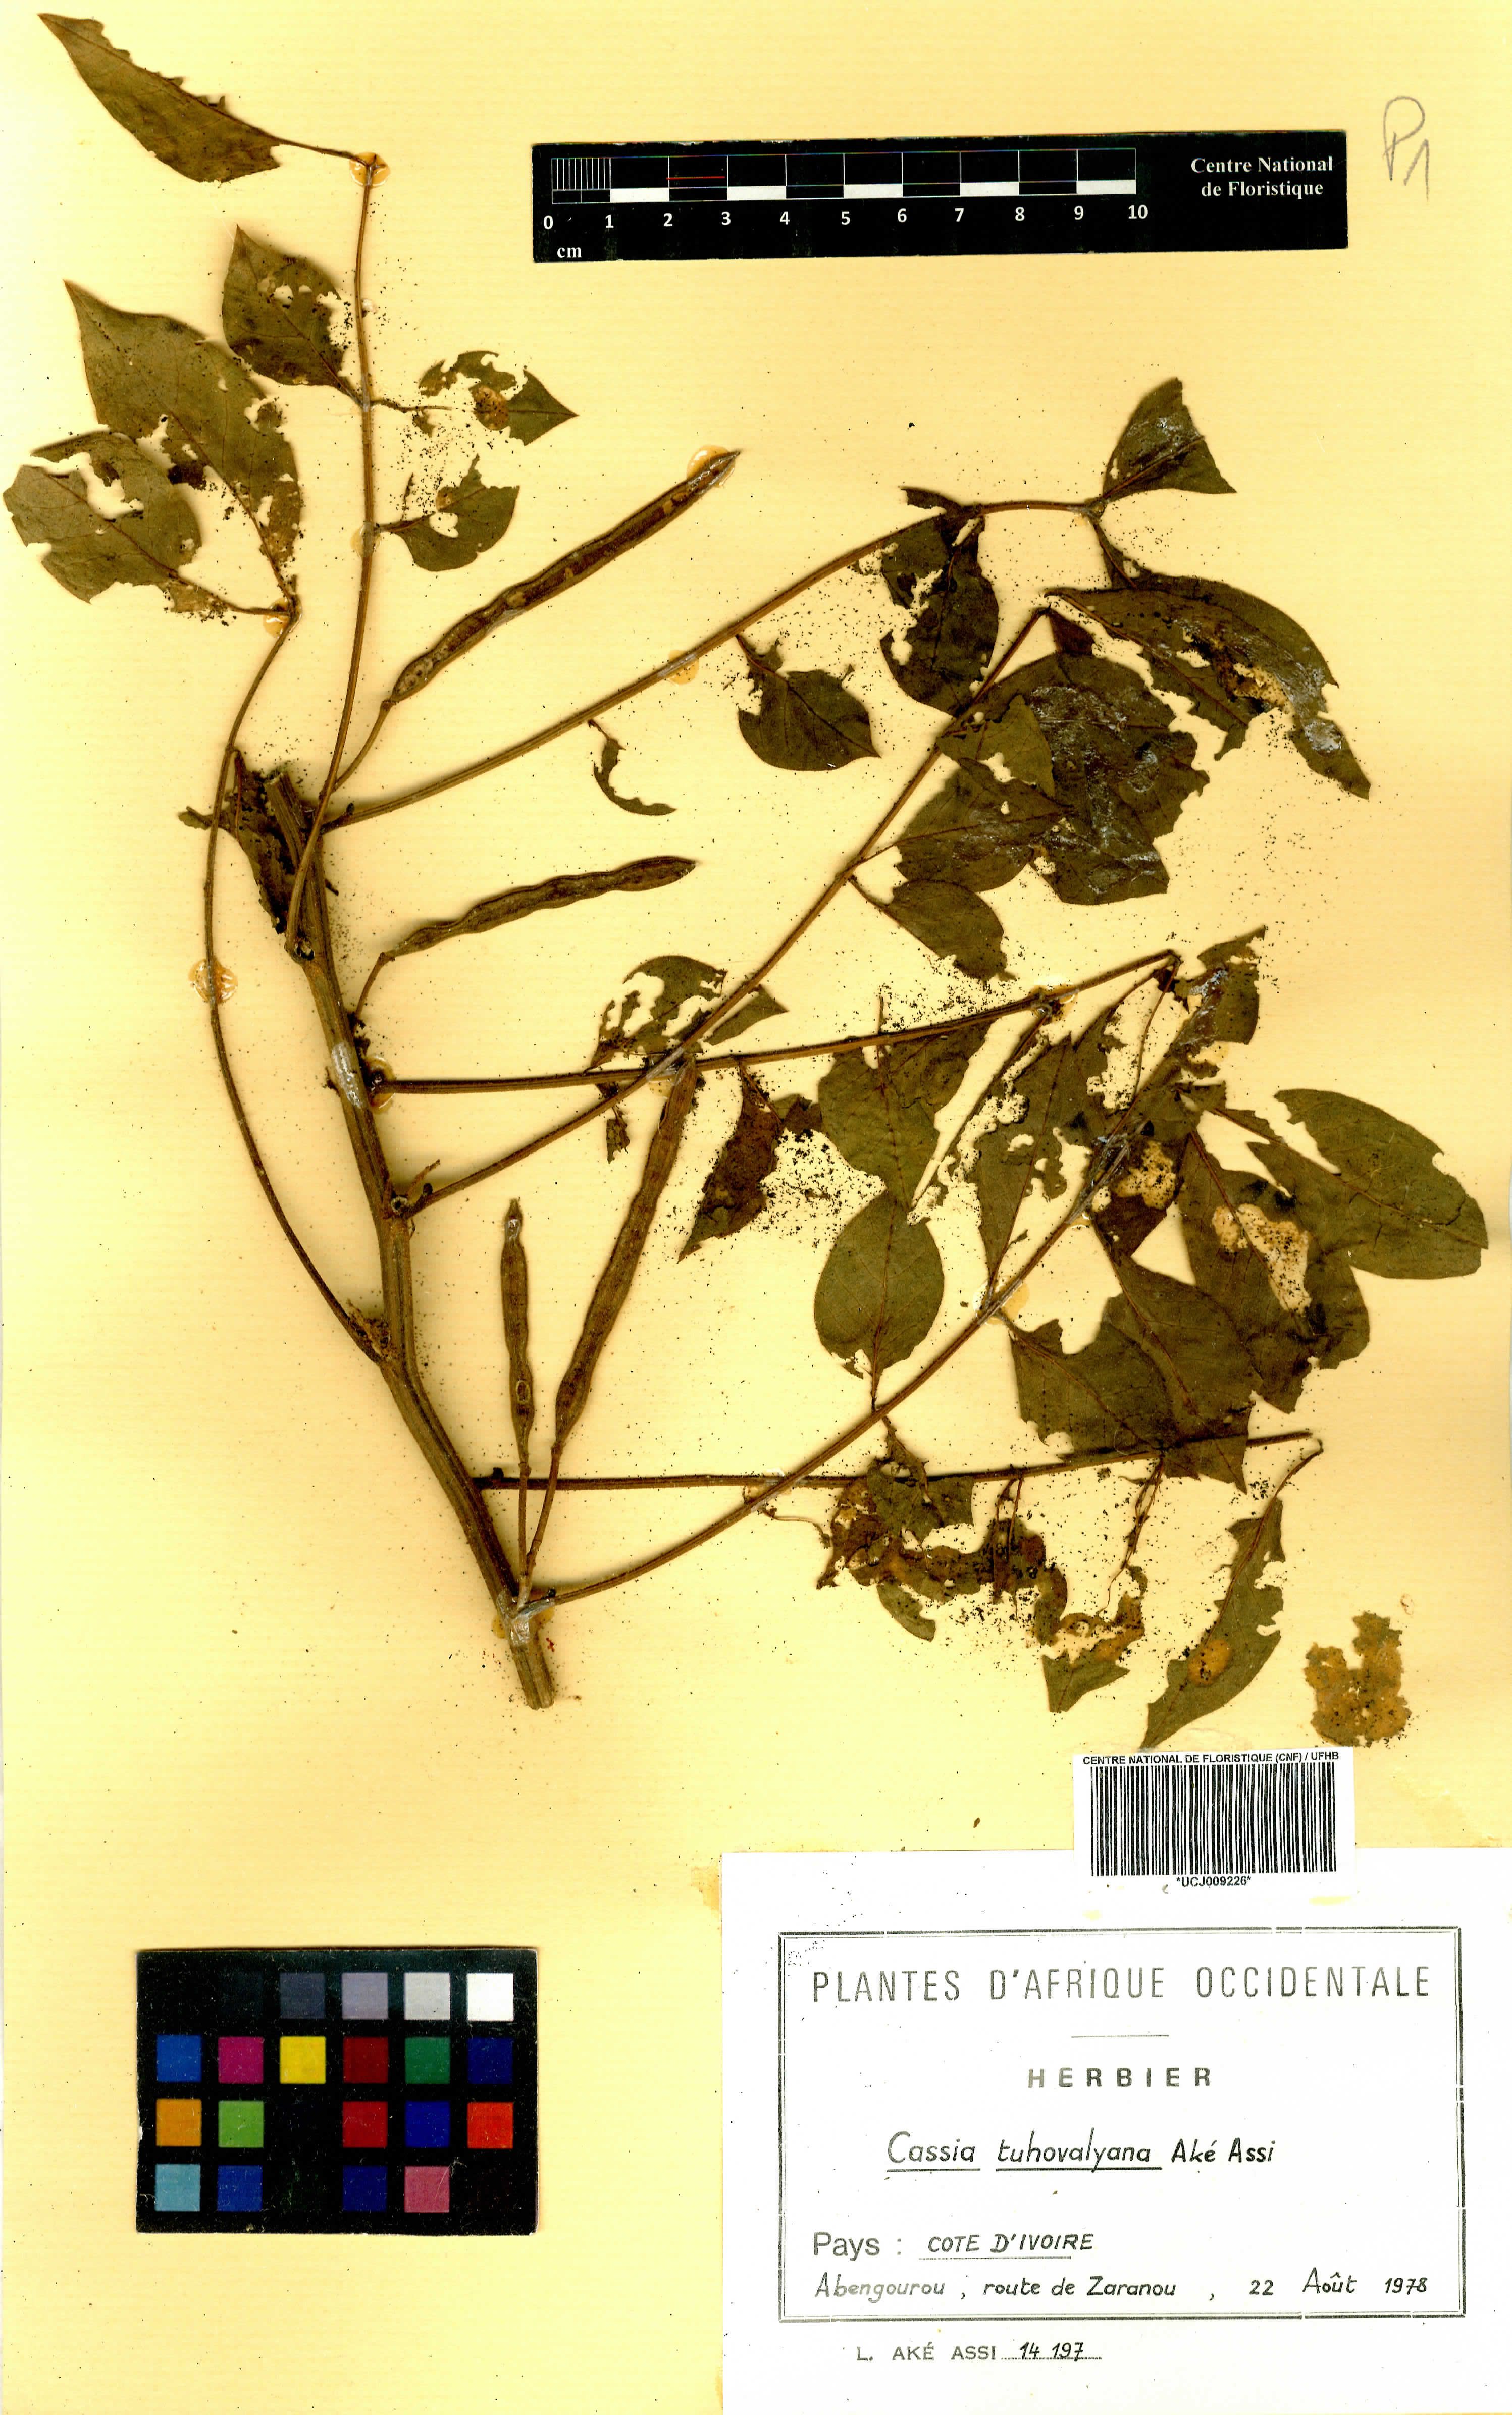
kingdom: Plantae
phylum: Tracheophyta
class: Magnoliopsida
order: Fabales
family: Fabaceae
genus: Senna
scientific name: Senna tuhovalyana
